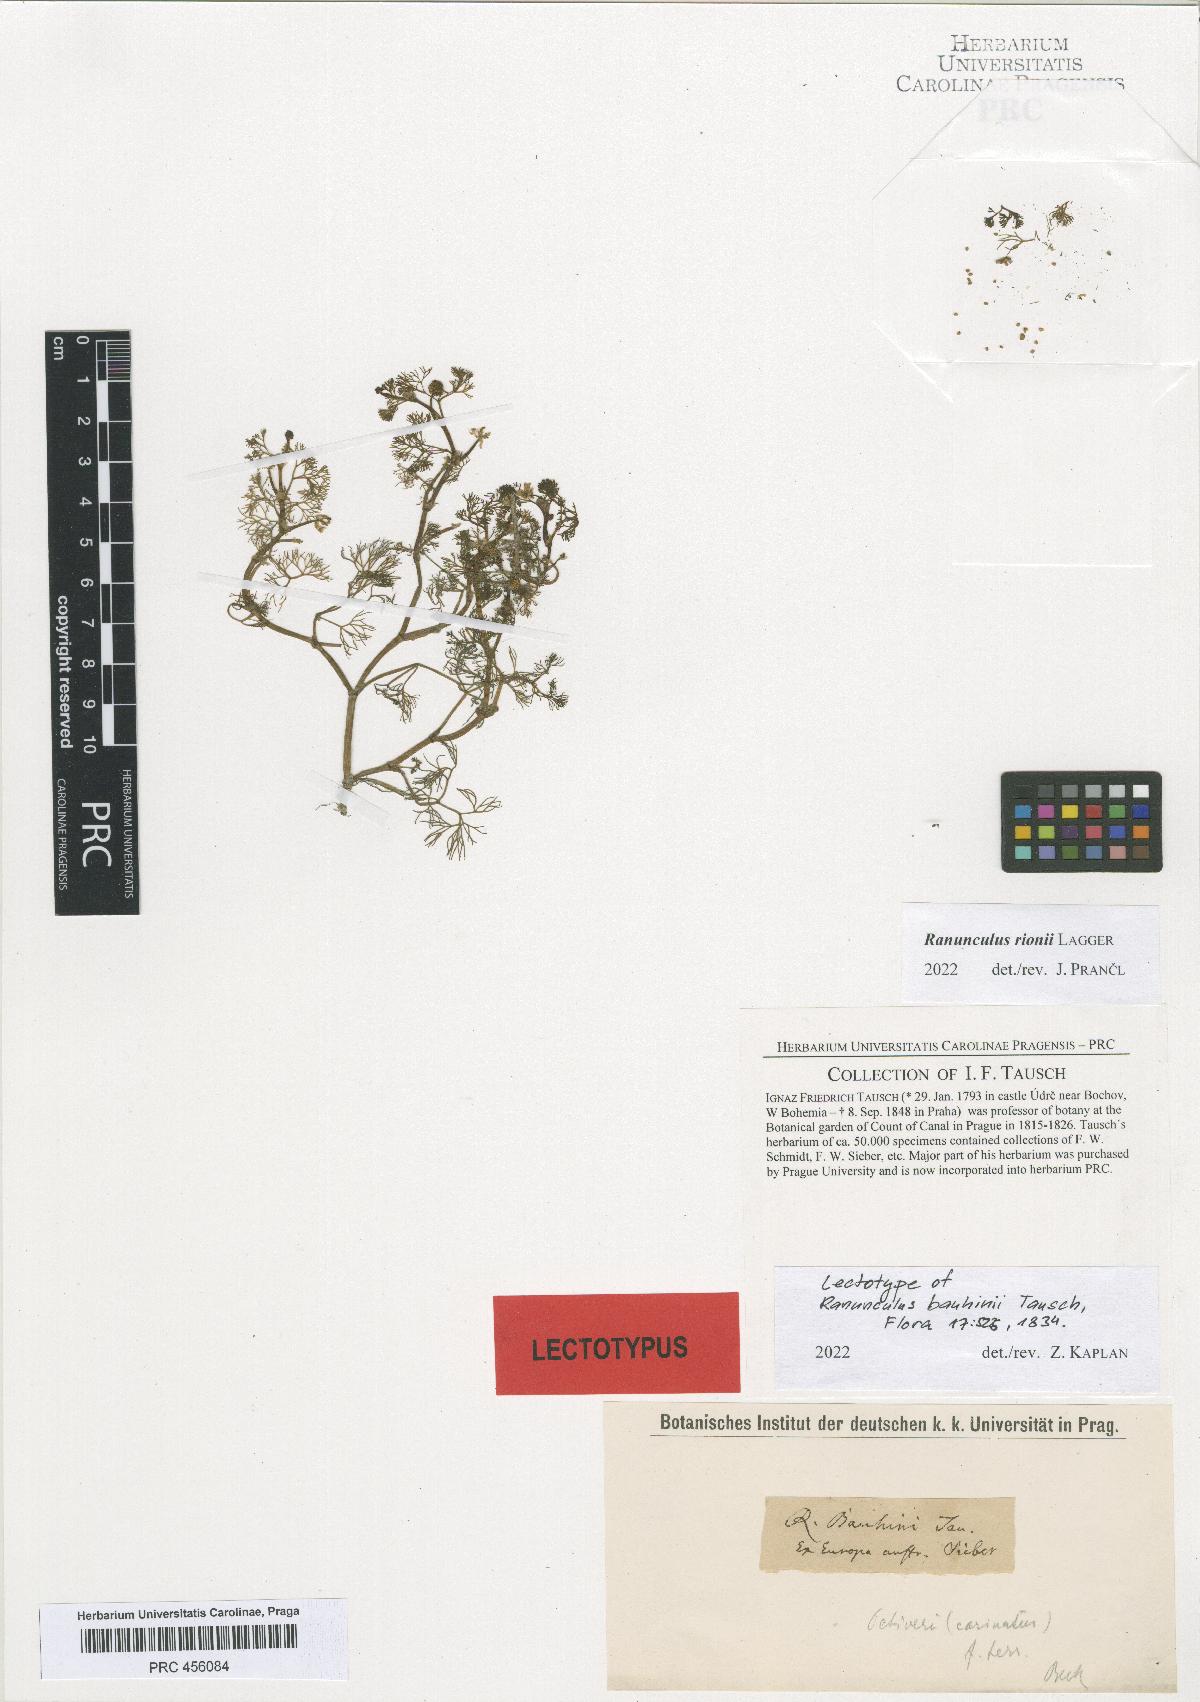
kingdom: Plantae
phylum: Tracheophyta
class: Magnoliopsida
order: Ranunculales
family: Ranunculaceae
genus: Ranunculus
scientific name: Ranunculus aquatilis
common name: Common water-crowfoot
